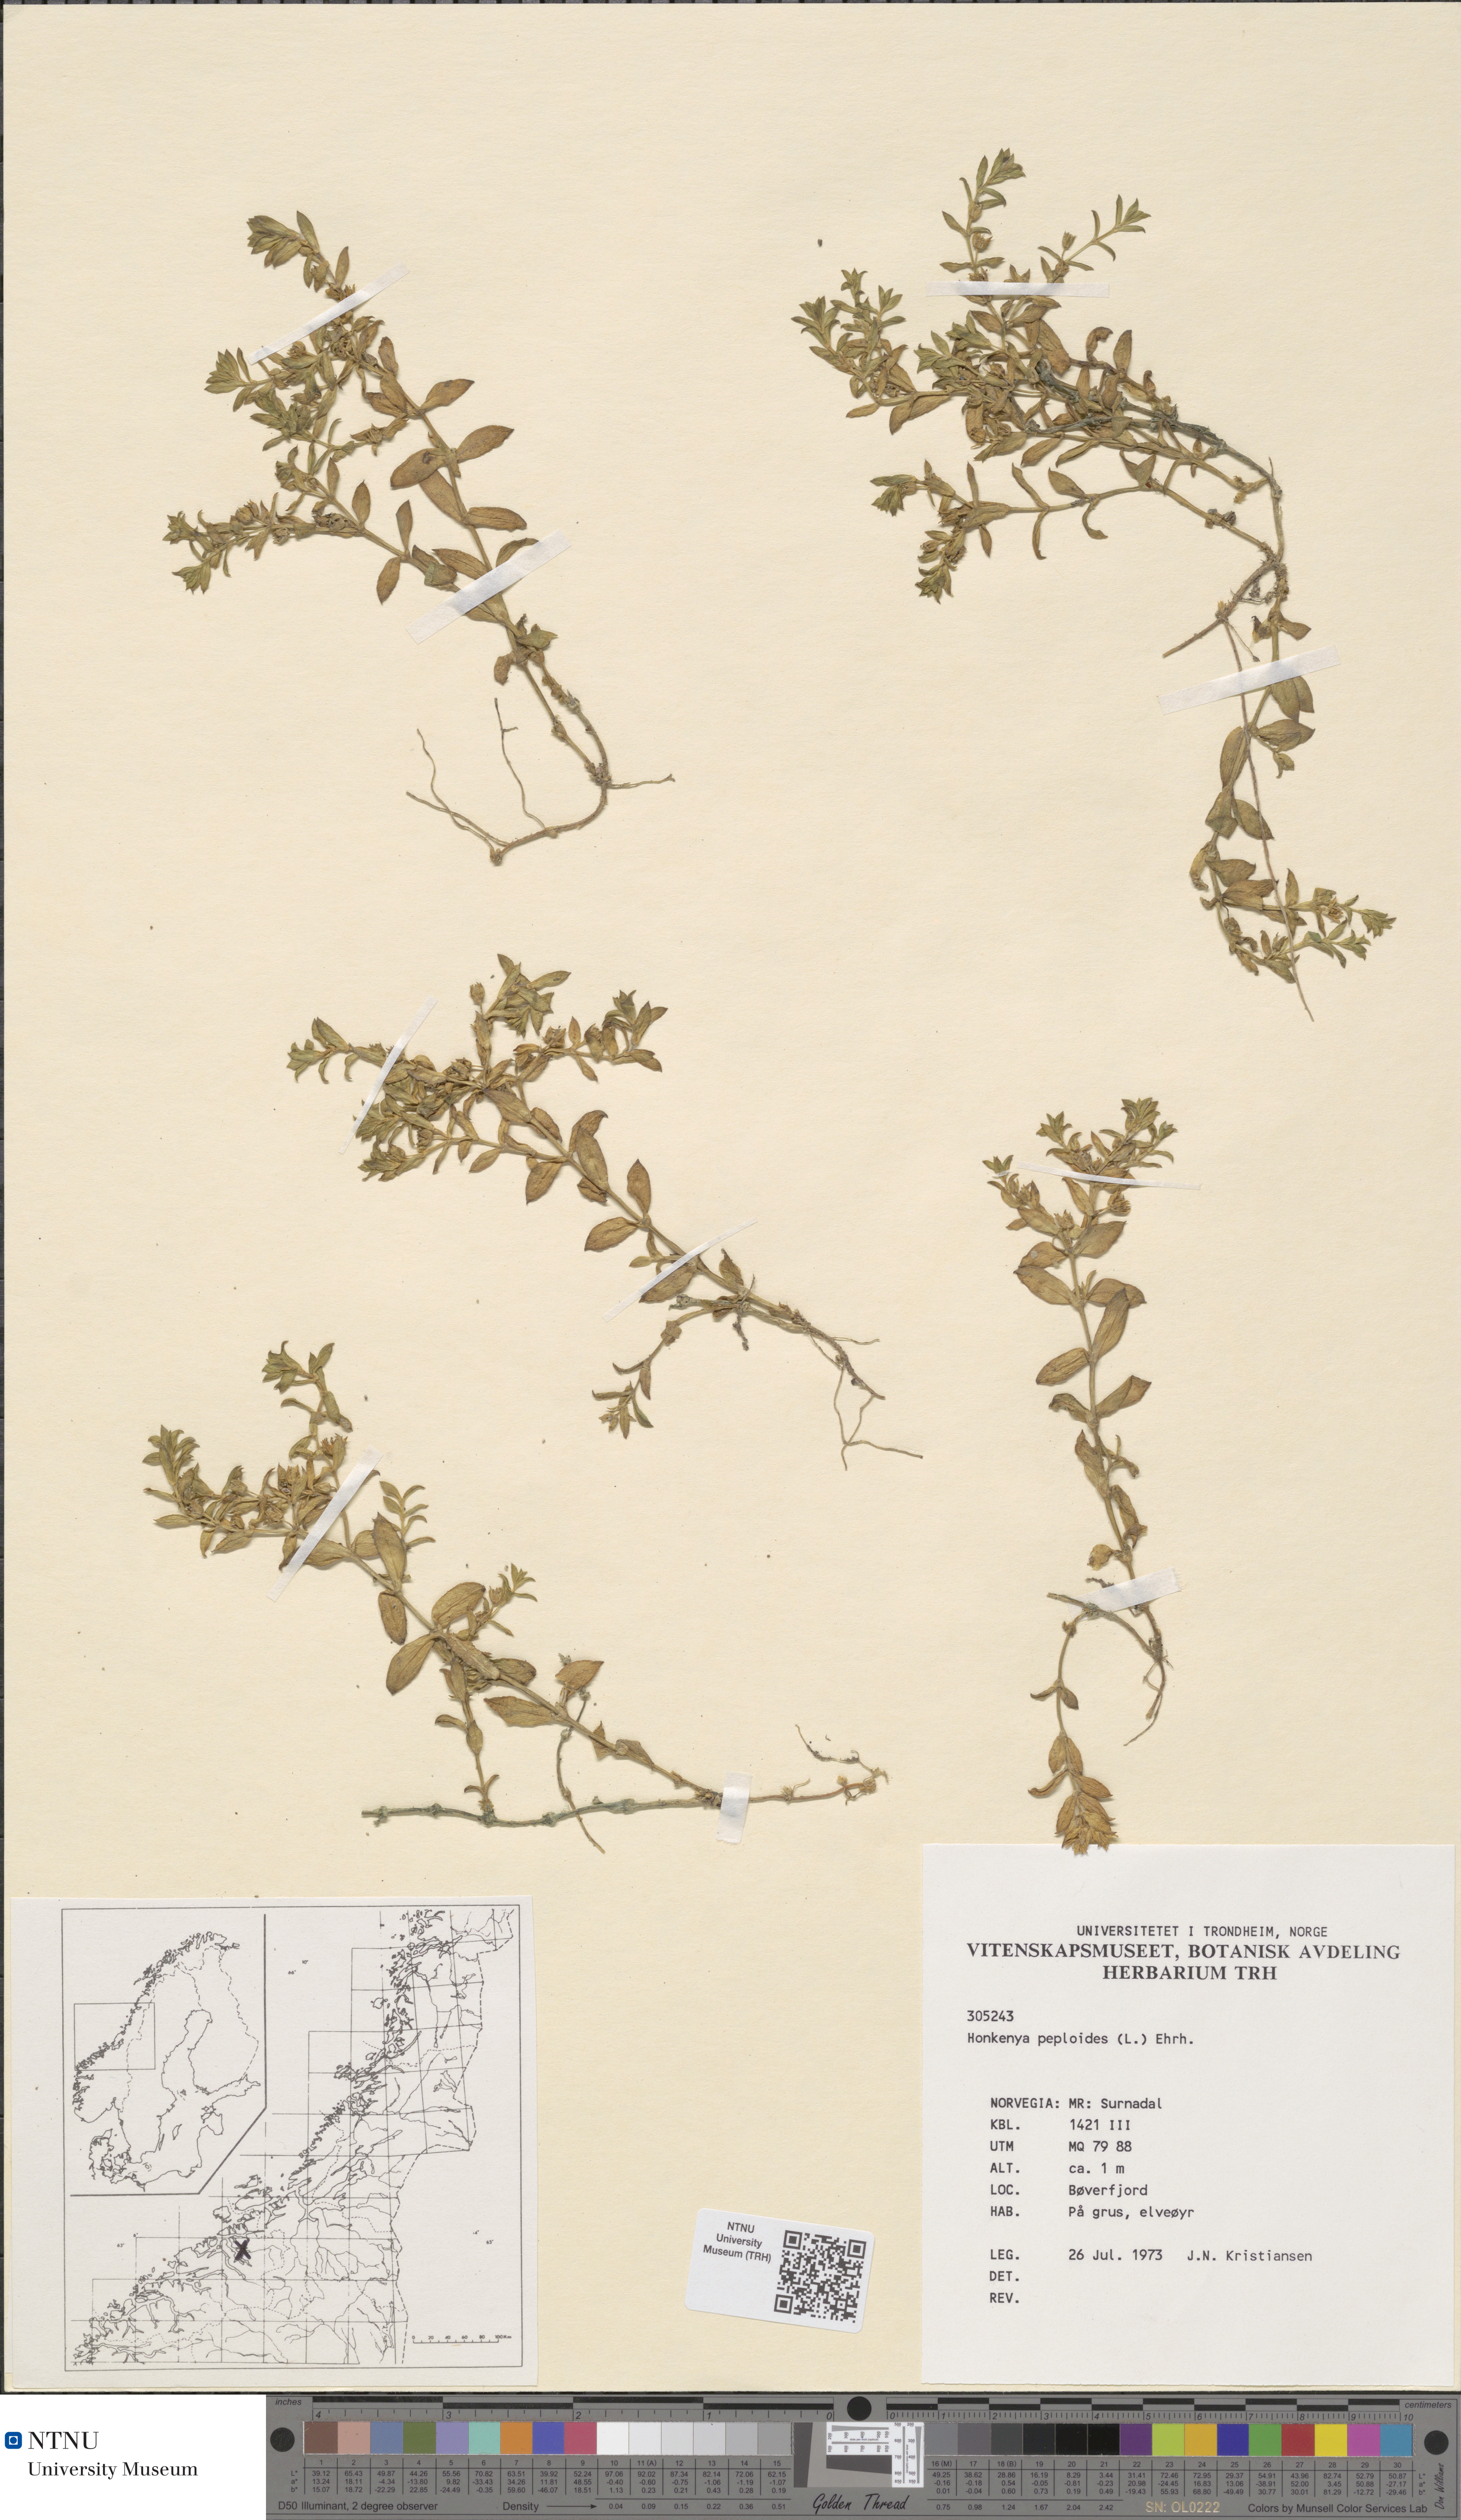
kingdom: Plantae
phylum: Tracheophyta
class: Magnoliopsida
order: Caryophyllales
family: Caryophyllaceae
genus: Honckenya
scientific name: Honckenya peploides
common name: Sea sandwort
